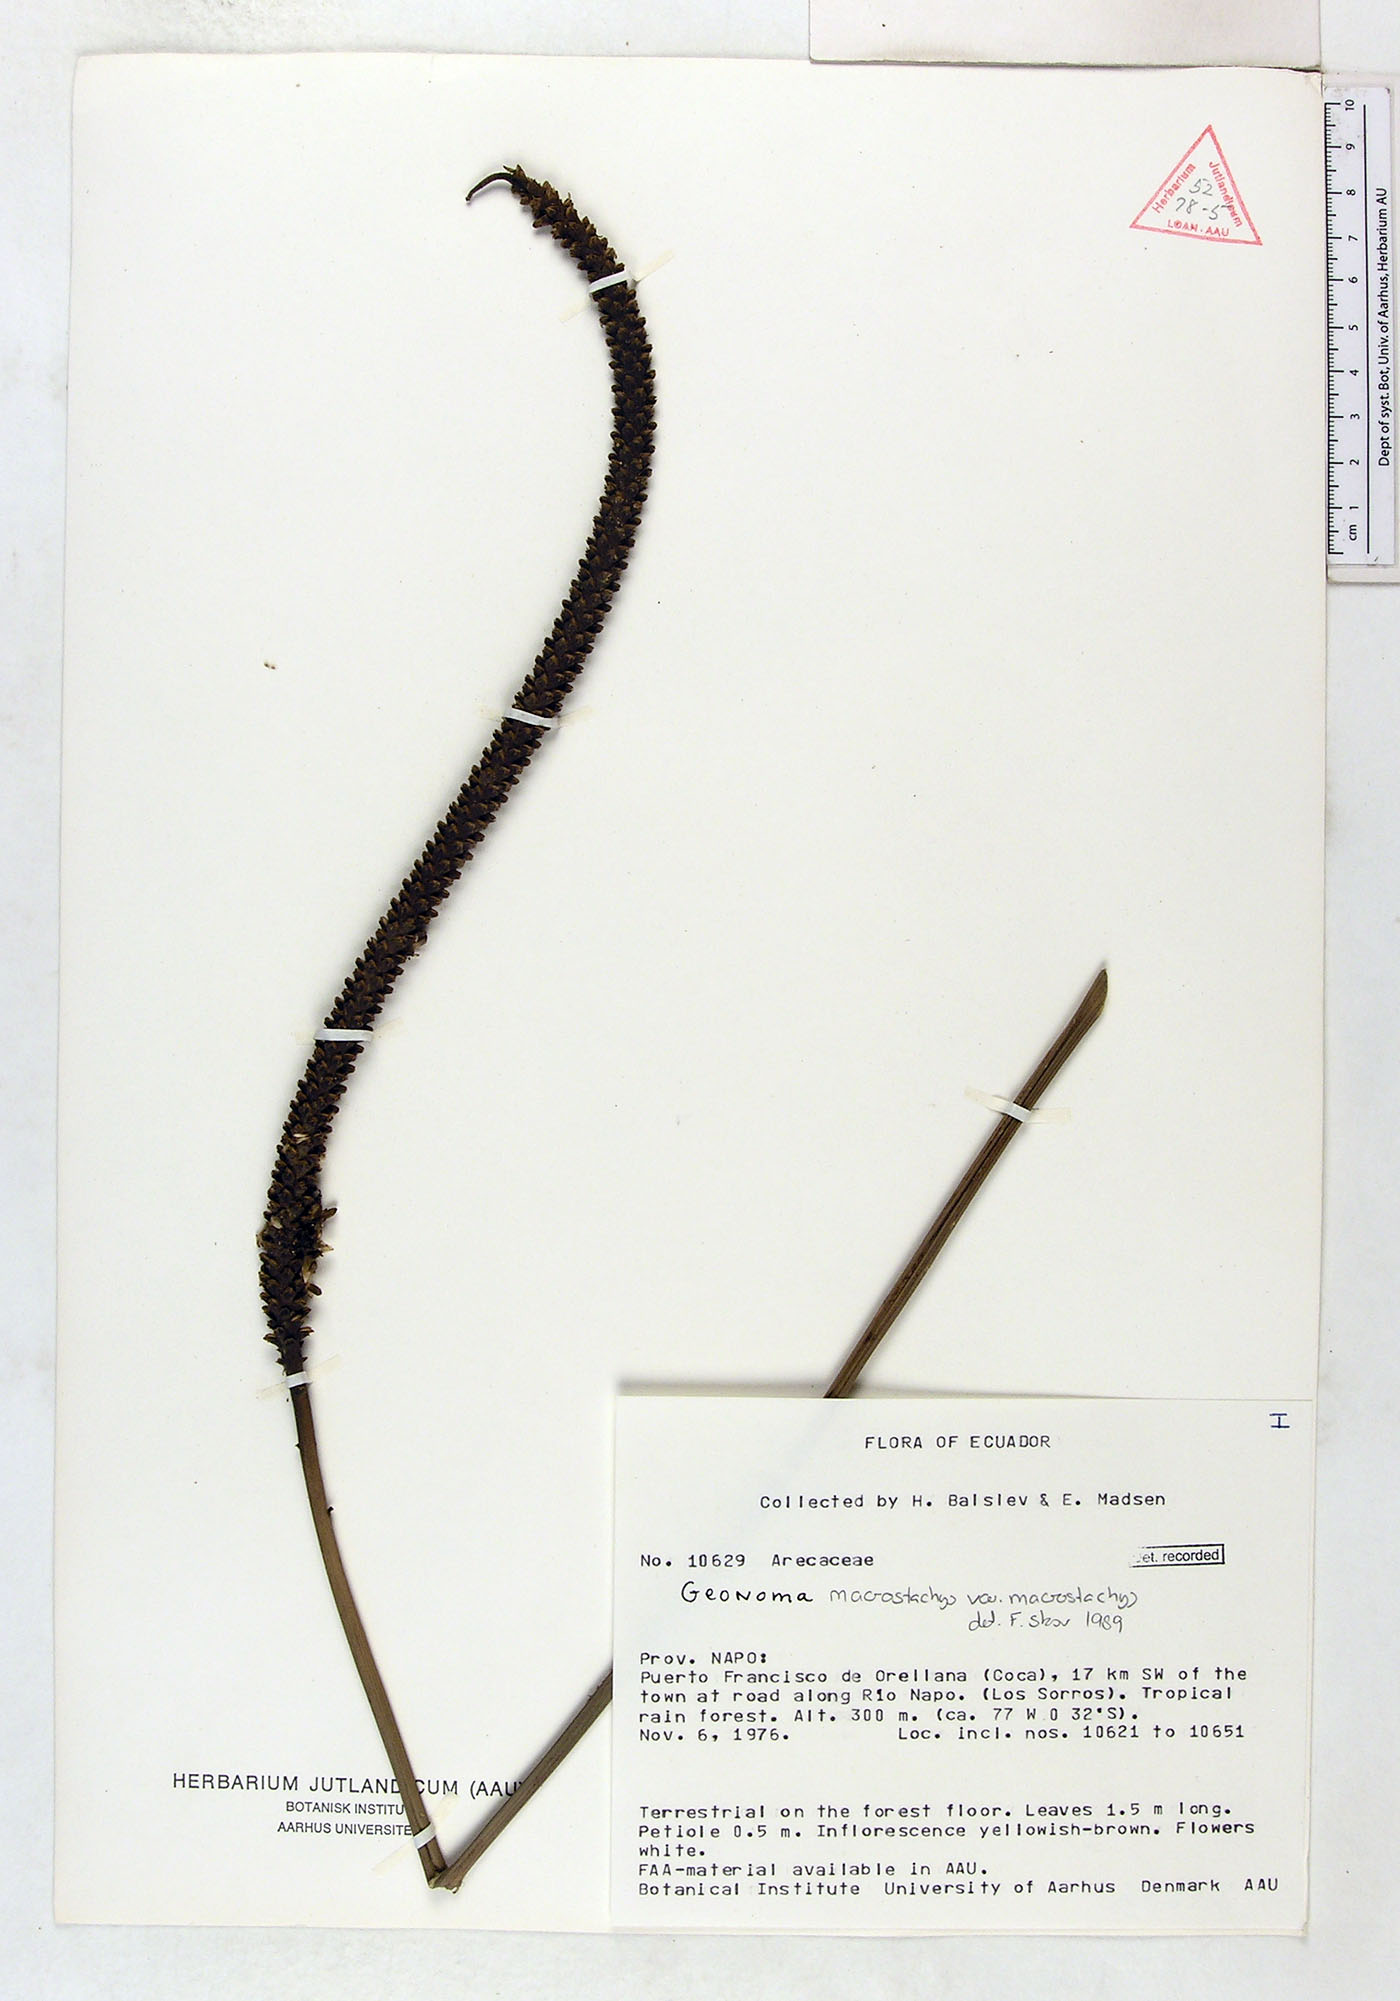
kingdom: Plantae
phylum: Tracheophyta
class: Liliopsida
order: Arecales
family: Arecaceae
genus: Geonoma
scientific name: Geonoma macrostachys
